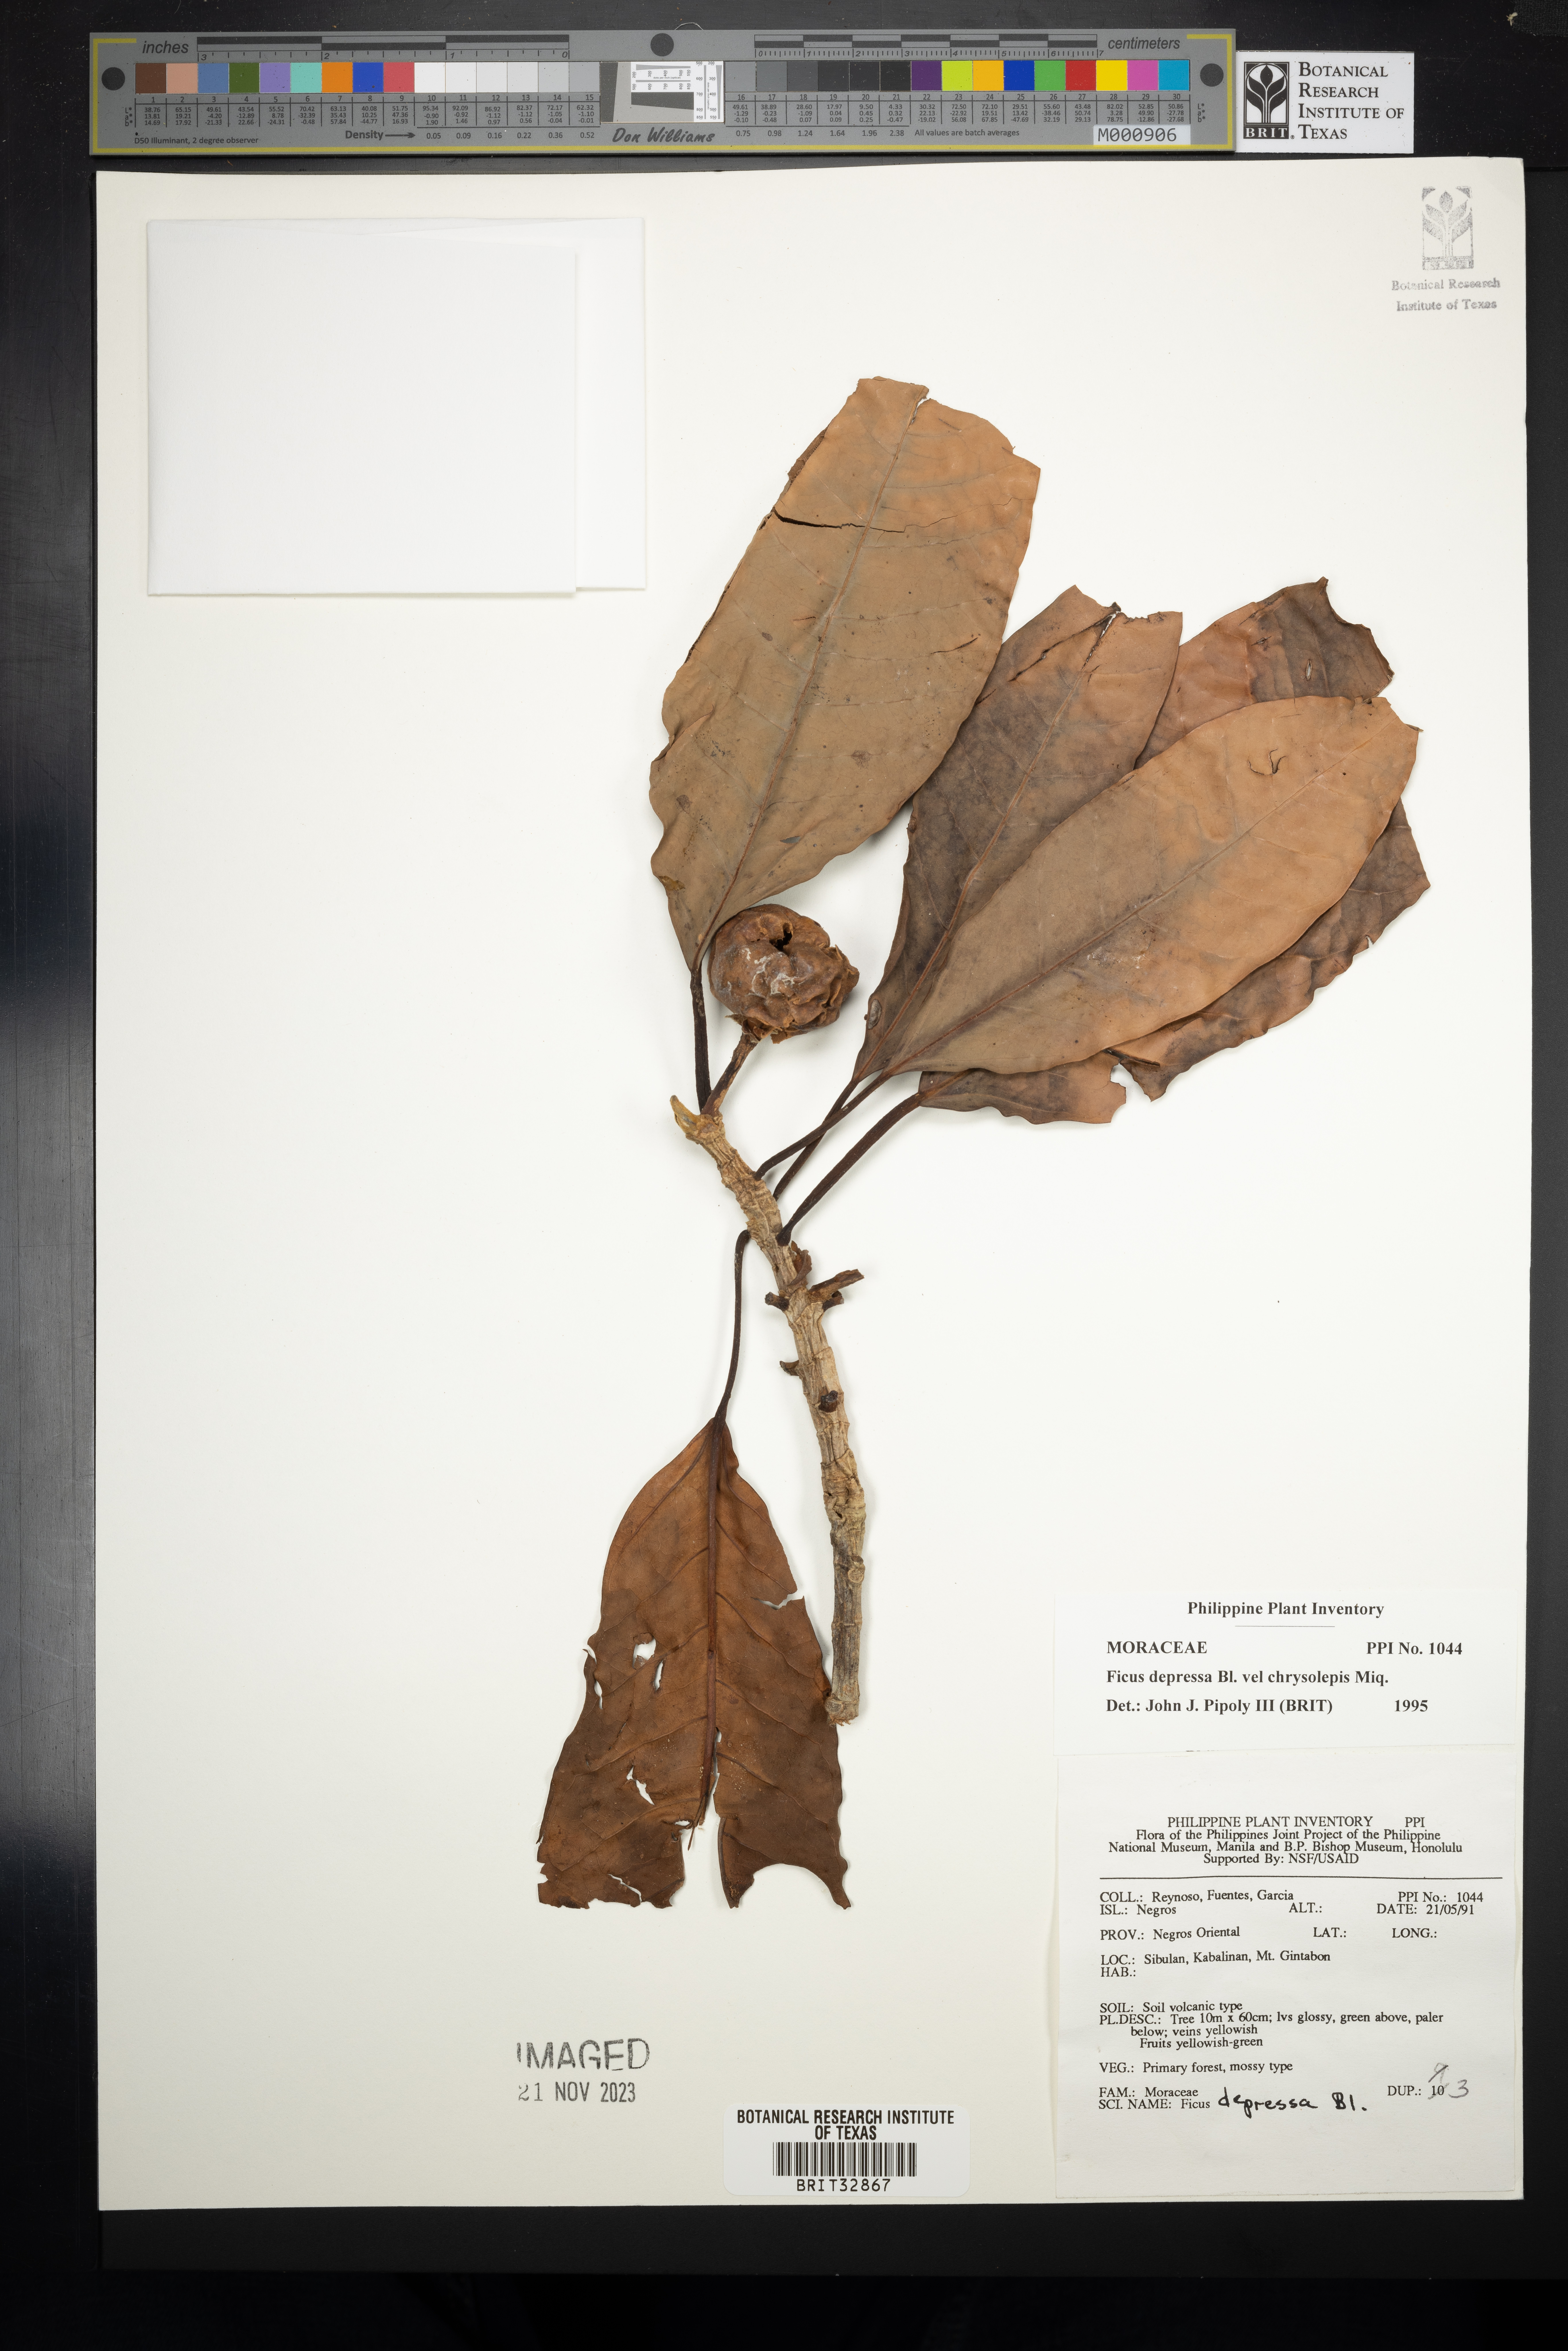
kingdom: Plantae
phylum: Tracheophyta
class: Magnoliopsida
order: Rosales
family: Moraceae
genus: Ficus
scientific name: Ficus depressa
